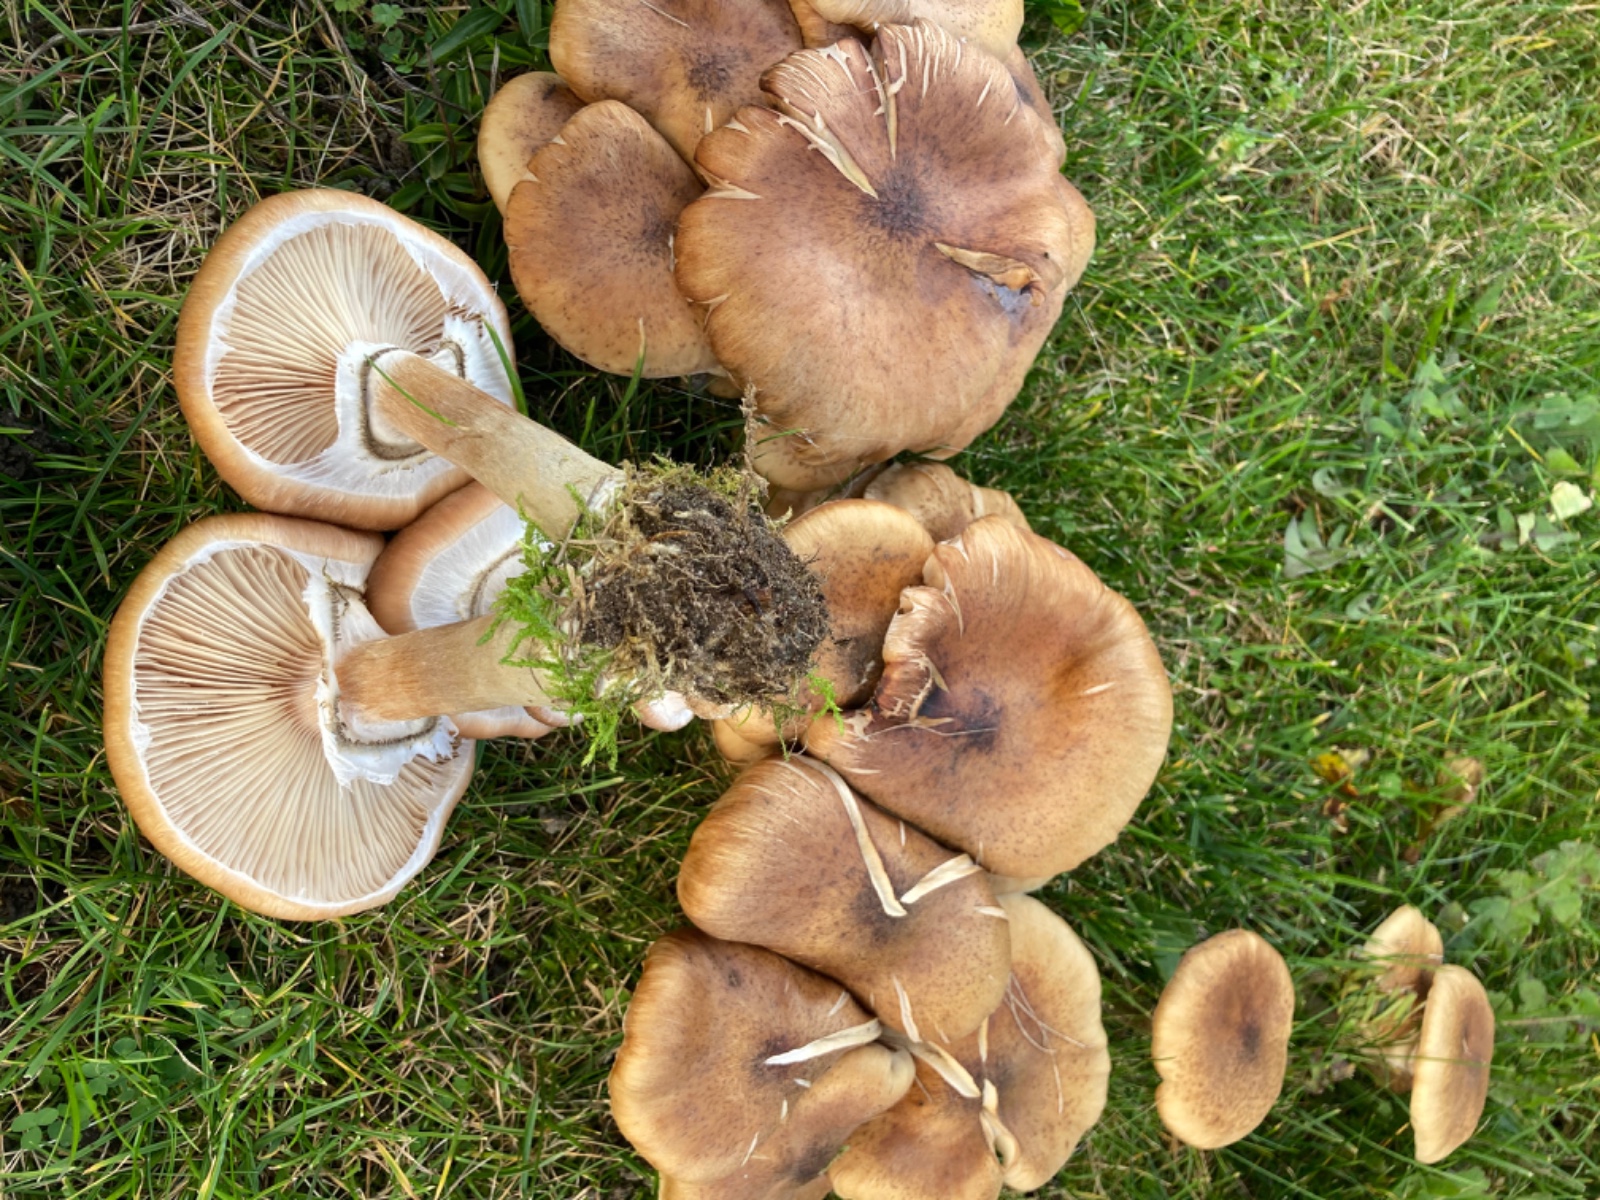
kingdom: Fungi
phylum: Basidiomycota
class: Agaricomycetes
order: Agaricales
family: Physalacriaceae
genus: Armillaria
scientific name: Armillaria
